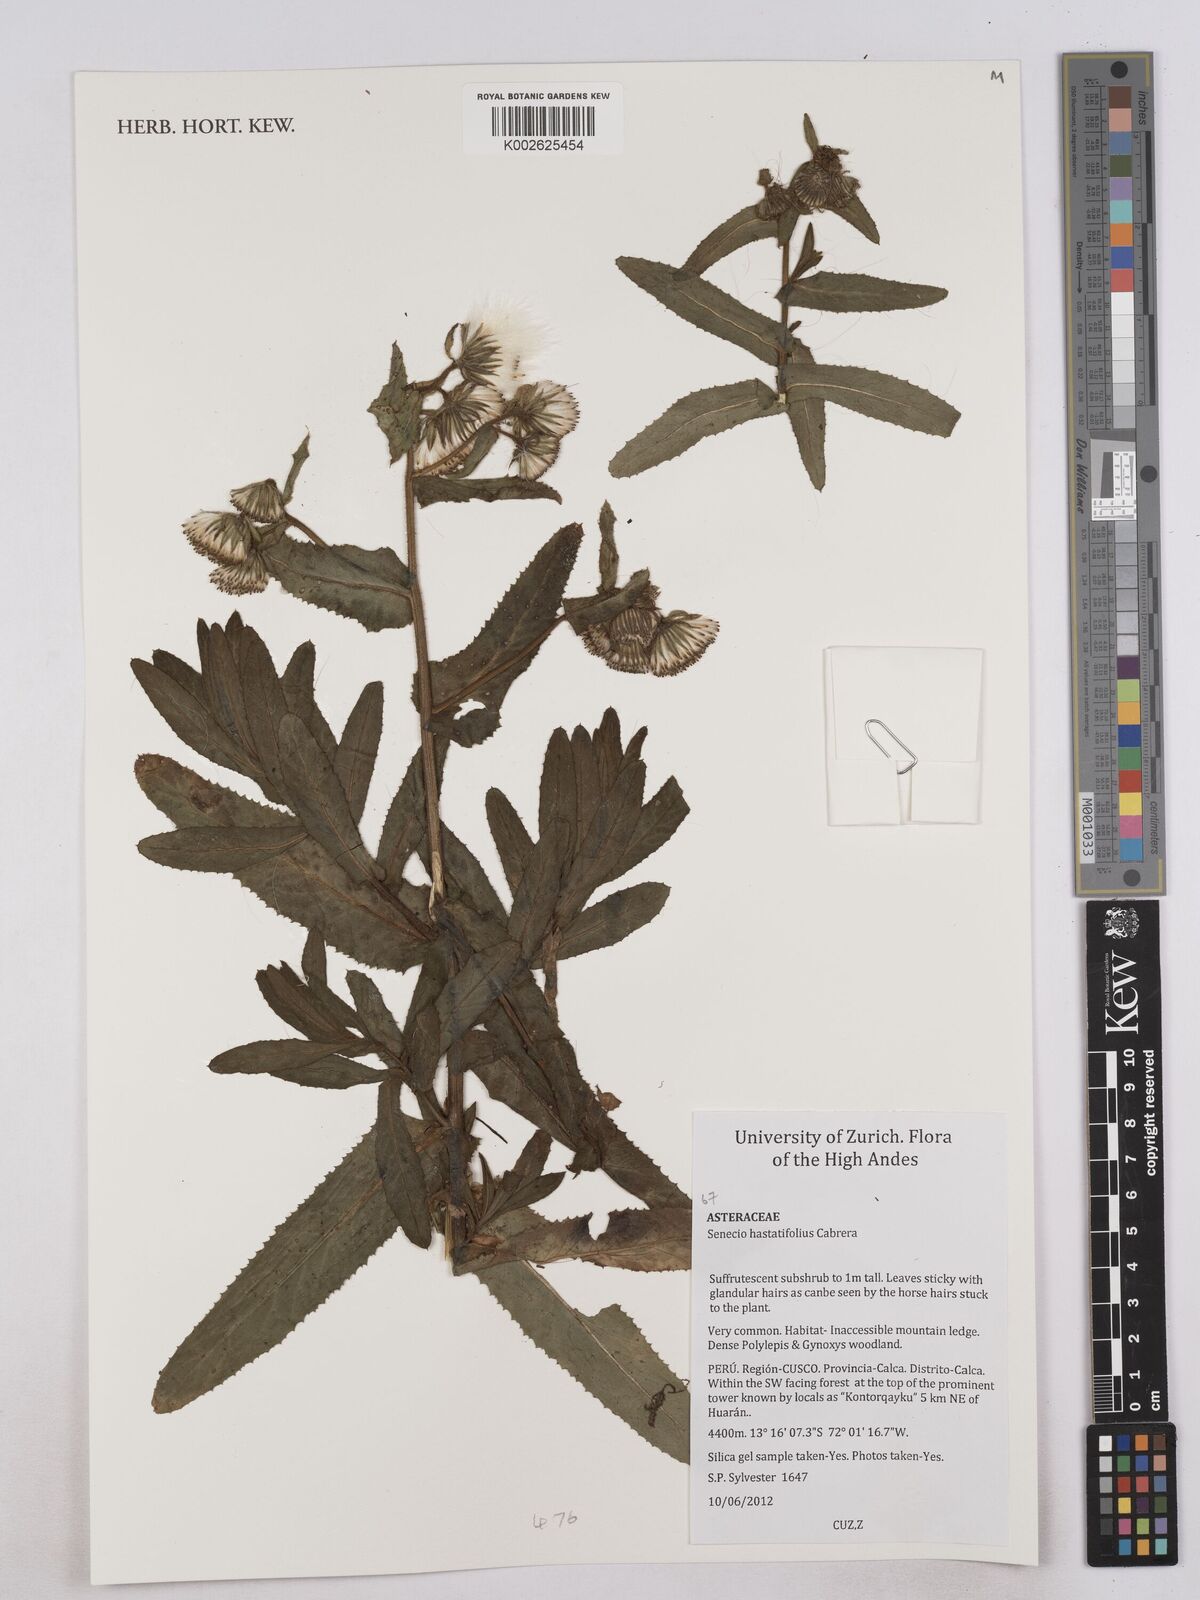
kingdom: Plantae
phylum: Tracheophyta
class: Magnoliopsida
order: Asterales
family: Asteraceae
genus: Senecio
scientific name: Senecio hastatifolius
